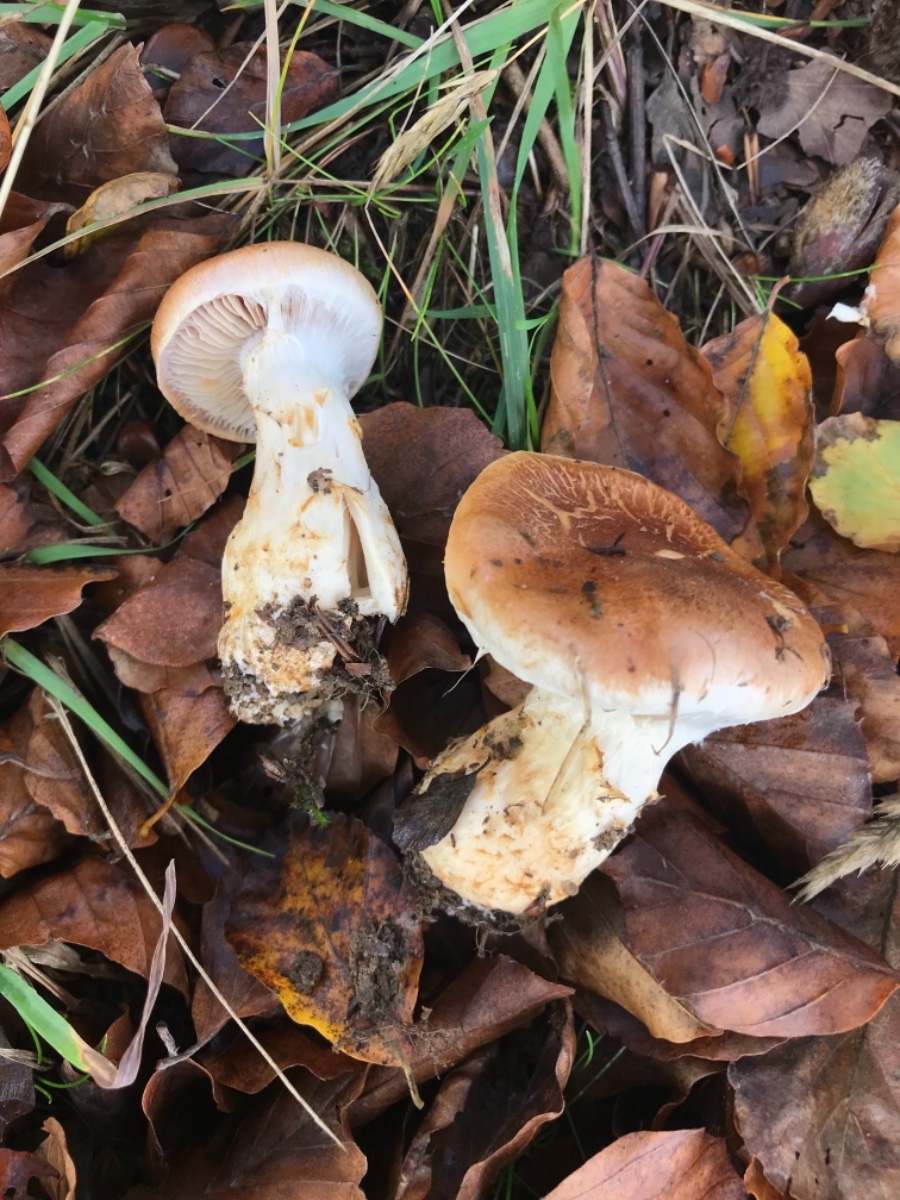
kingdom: Fungi
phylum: Basidiomycota
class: Agaricomycetes
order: Agaricales
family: Cortinariaceae
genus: Phlegmacium
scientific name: Phlegmacium vulpinum
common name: ringbæltet slørhat
